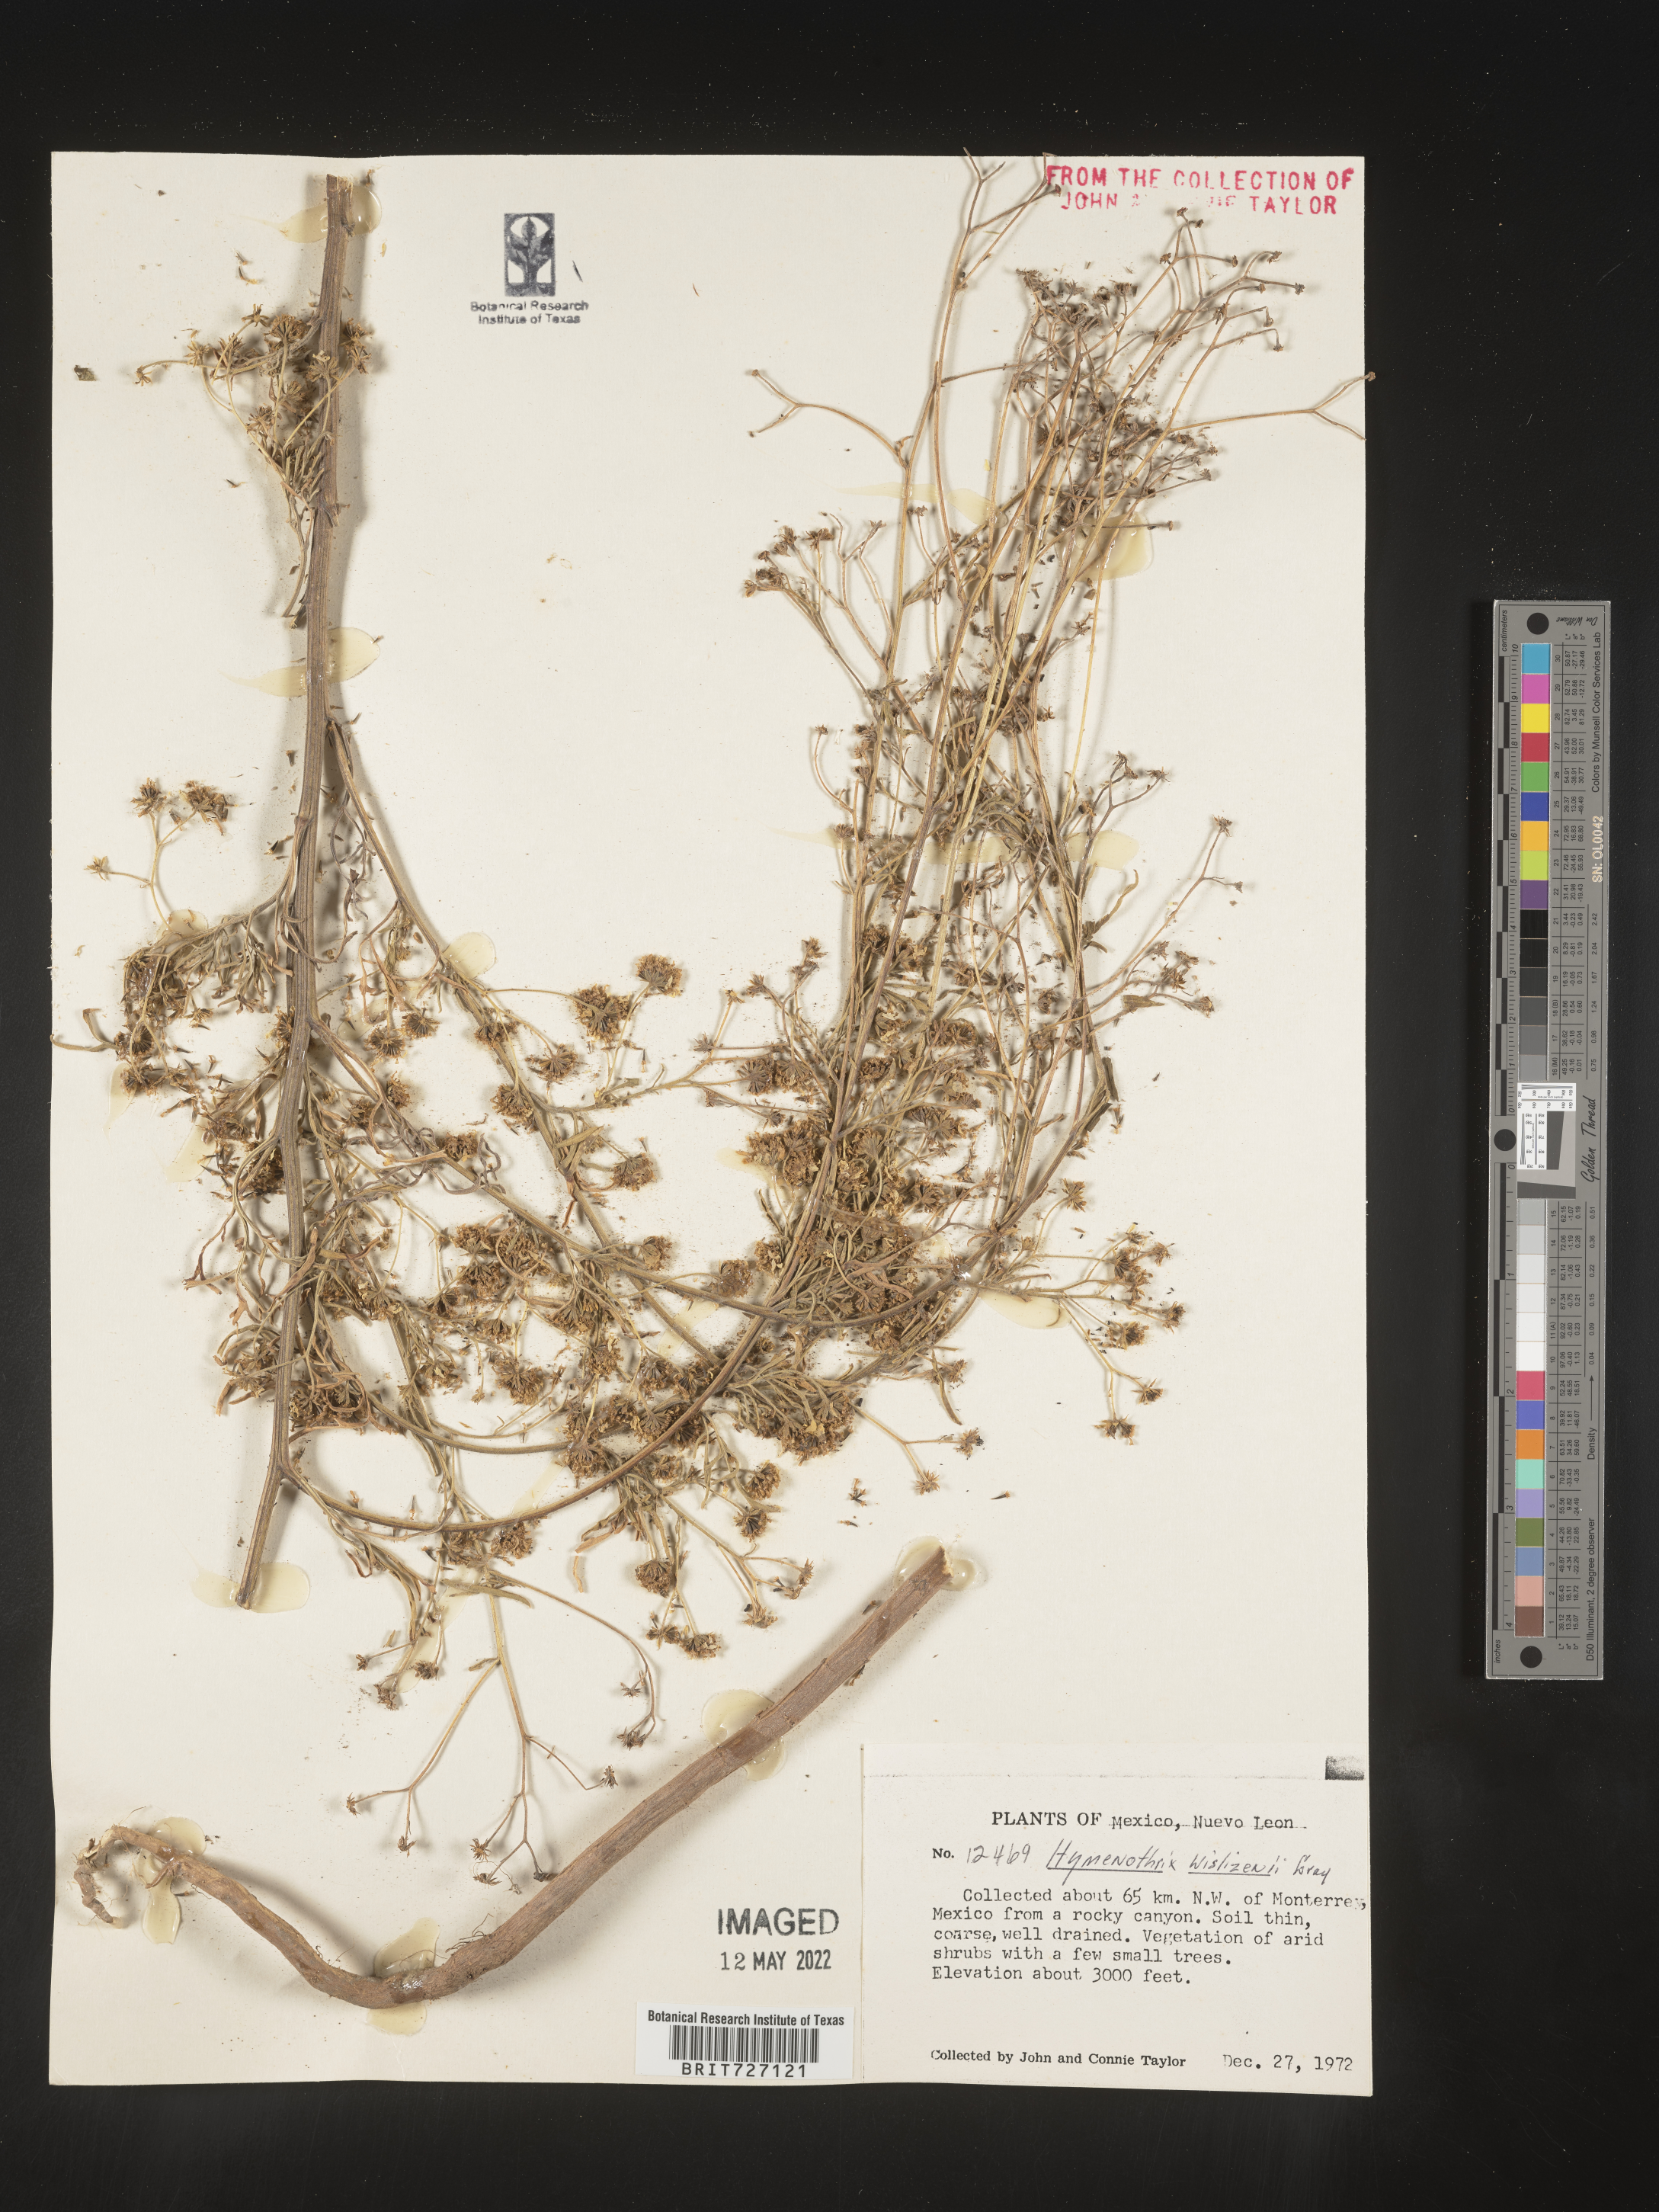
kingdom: Plantae
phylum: Tracheophyta
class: Magnoliopsida
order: Asterales
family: Asteraceae
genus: Hymenothrix
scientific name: Hymenothrix
